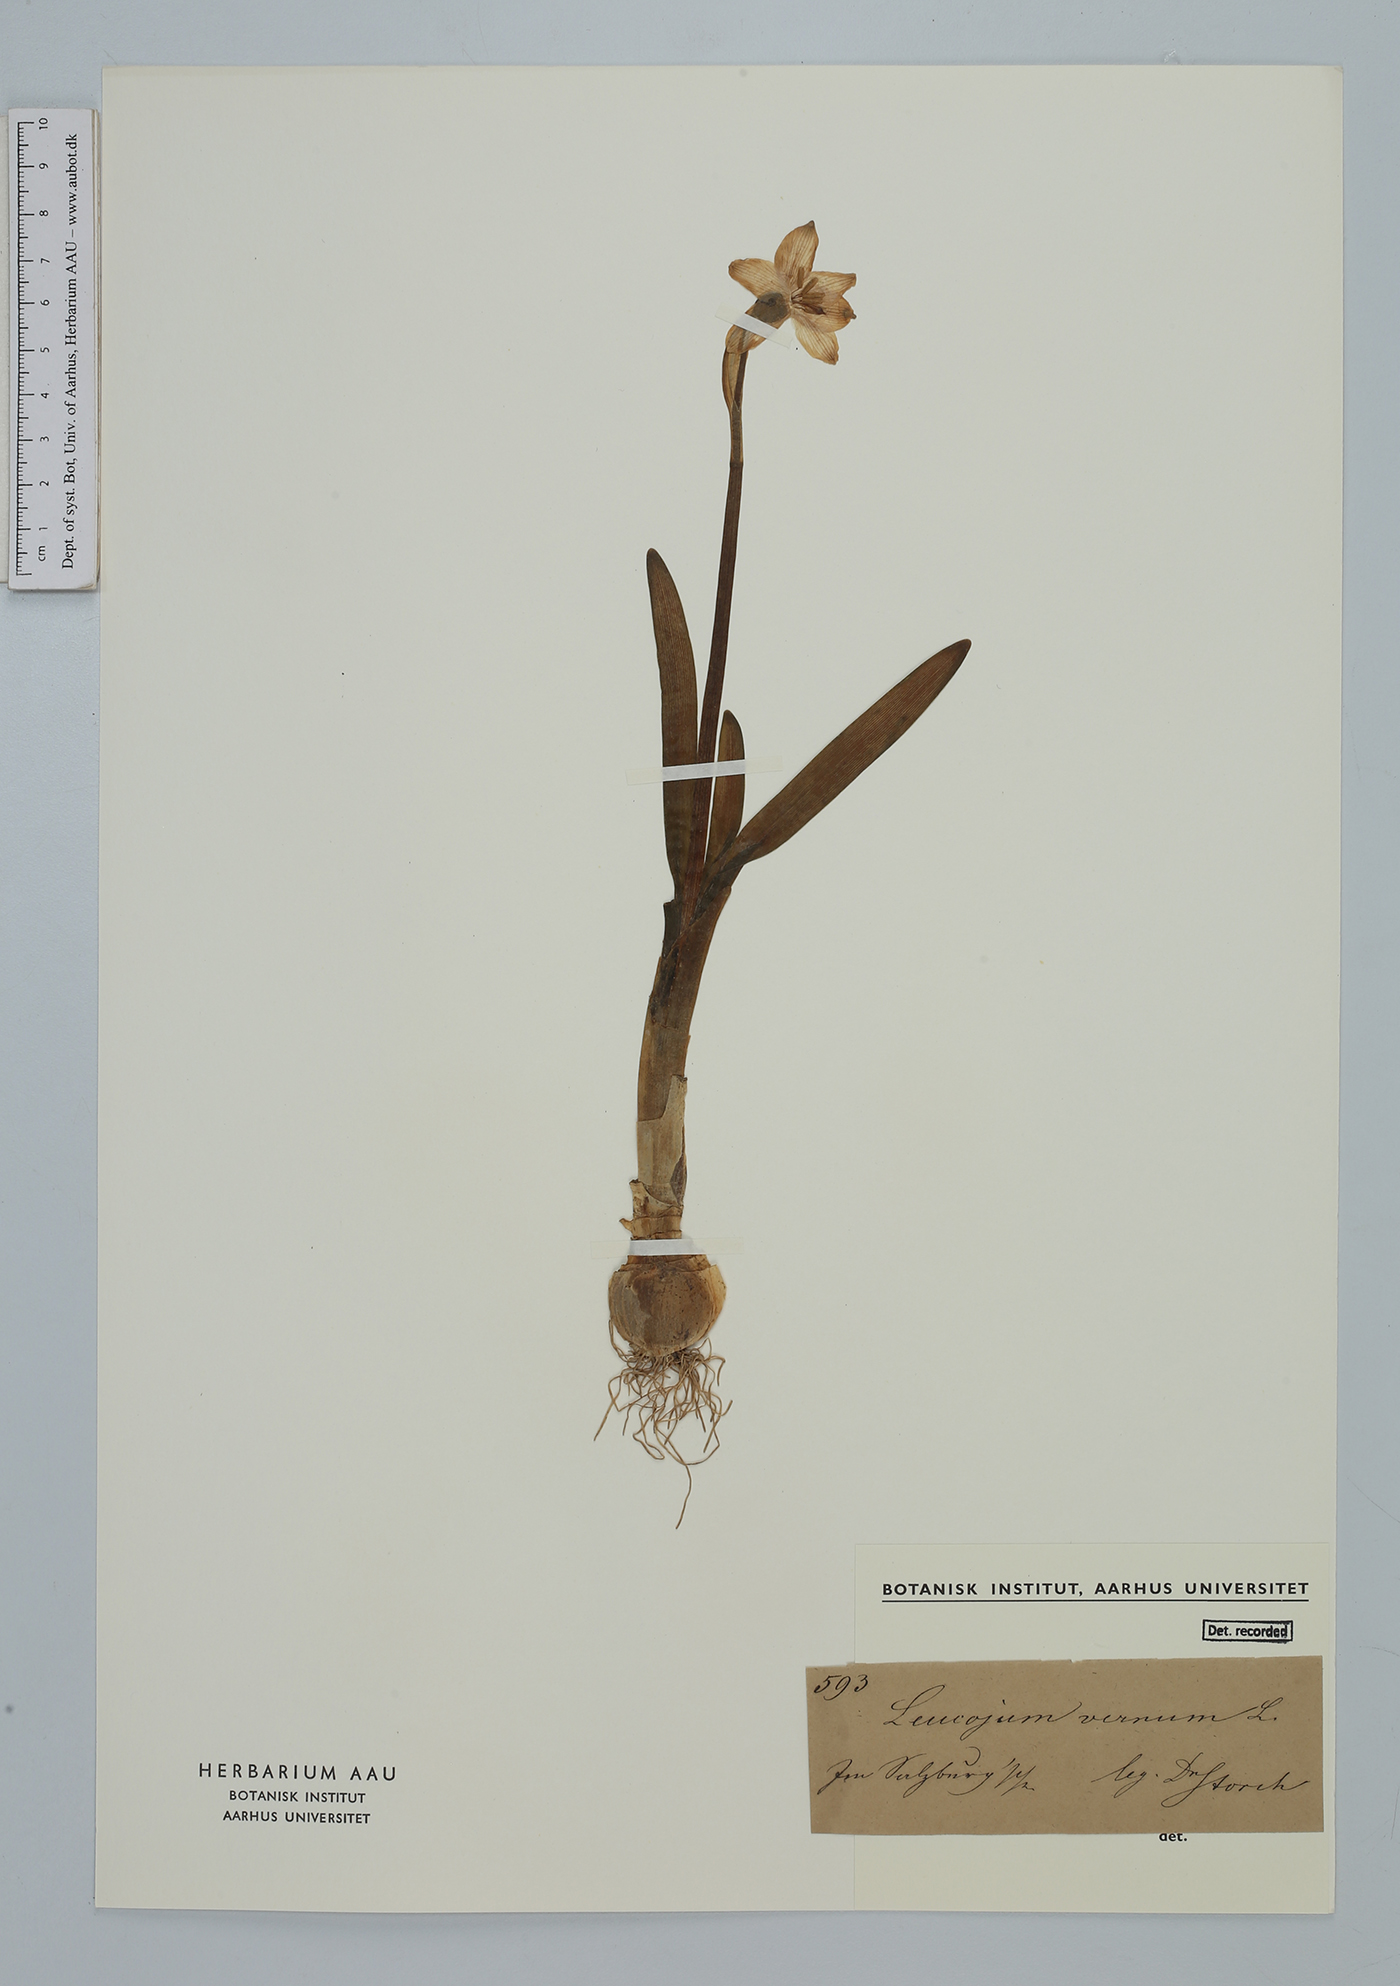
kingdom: Plantae
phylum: Tracheophyta
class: Liliopsida
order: Asparagales
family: Amaryllidaceae
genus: Leucojum
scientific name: Leucojum vernum
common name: Spring snowflake
